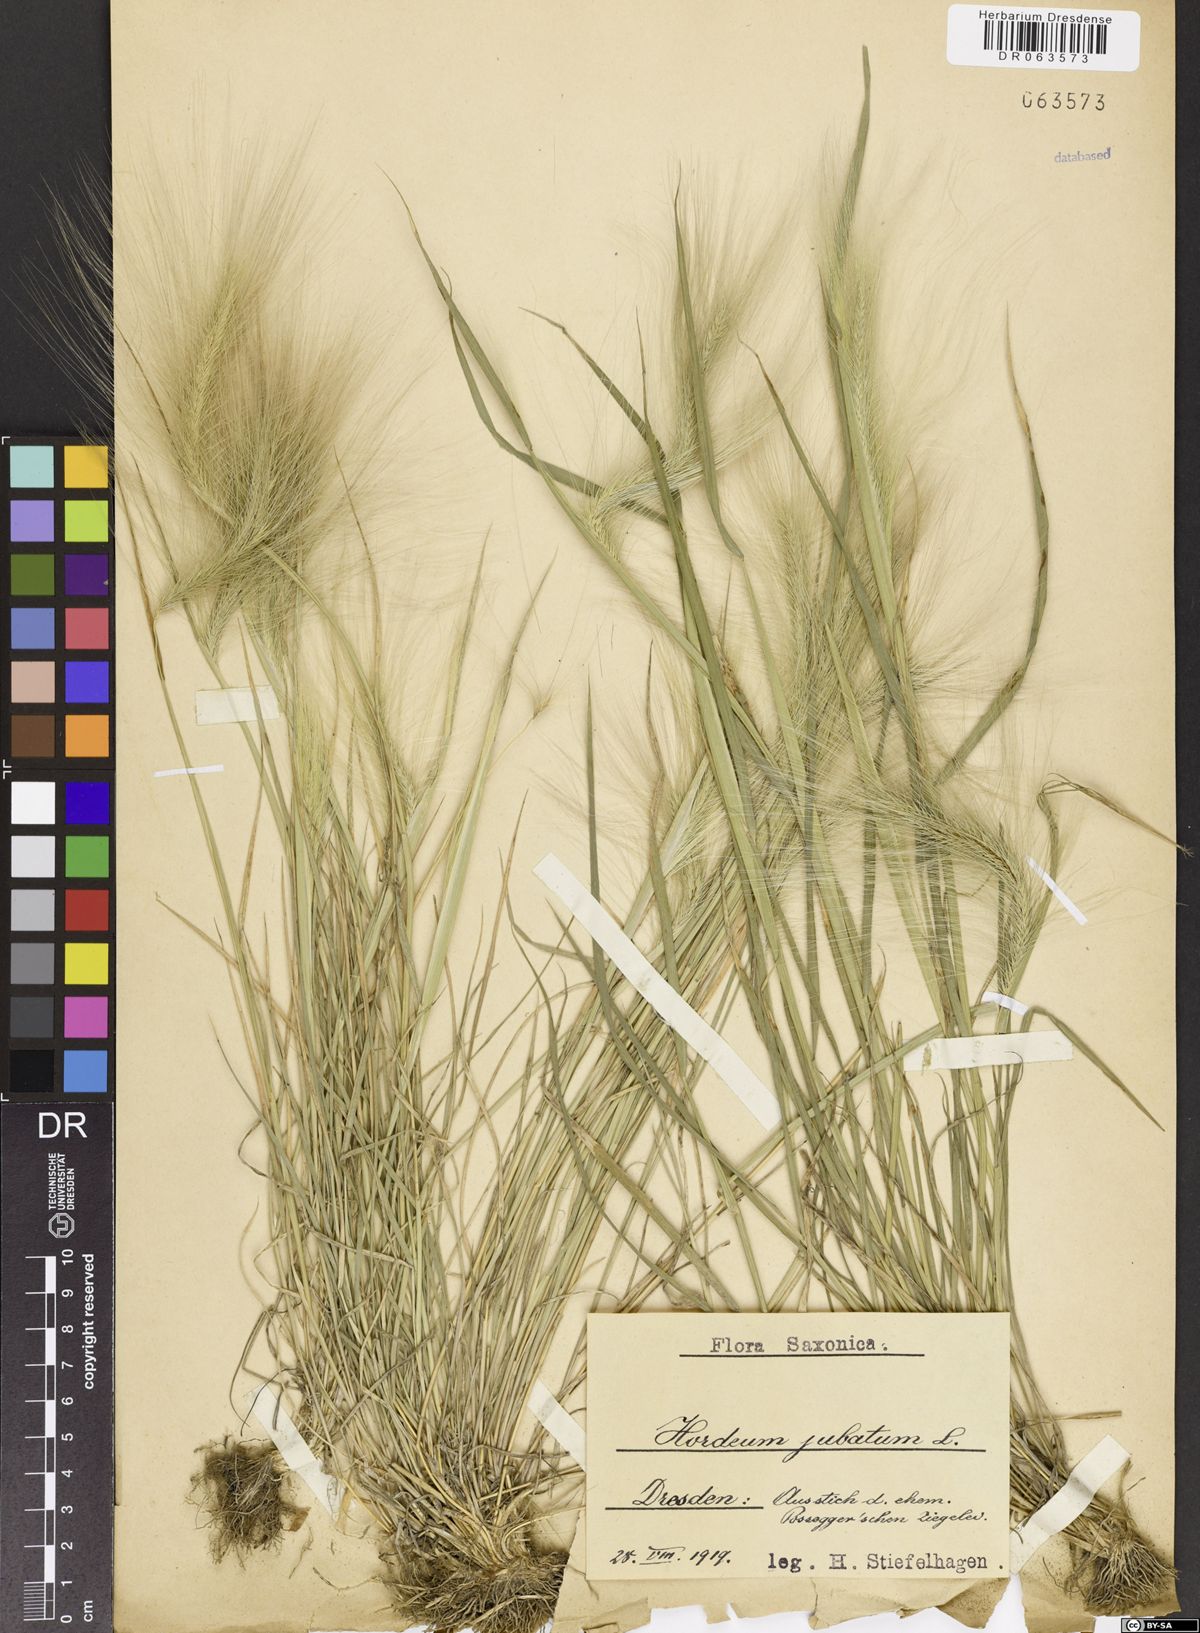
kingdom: Plantae
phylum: Tracheophyta
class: Liliopsida
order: Poales
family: Poaceae
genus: Hordeum
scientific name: Hordeum jubatum
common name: Foxtail barley
